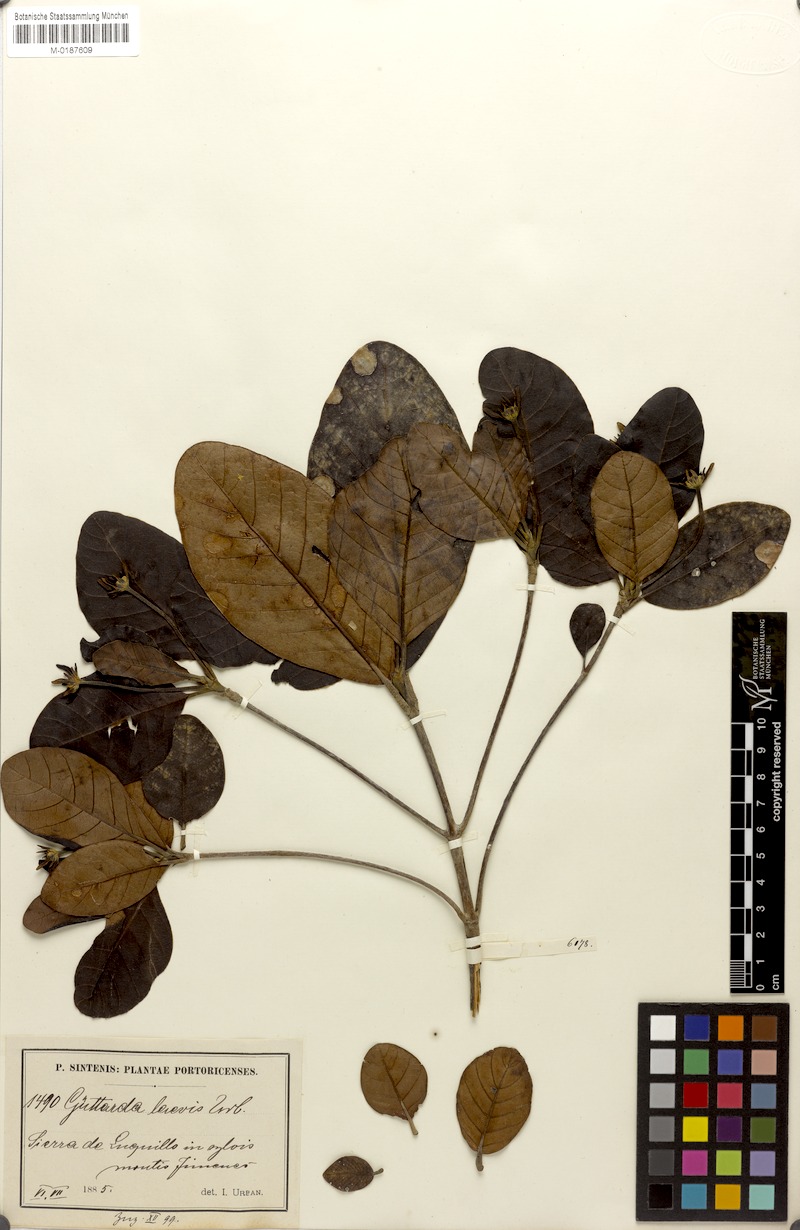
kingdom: Plantae
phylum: Tracheophyta
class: Magnoliopsida
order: Gentianales
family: Rubiaceae
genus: Guettarda
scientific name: Guettarda valenzuelana
